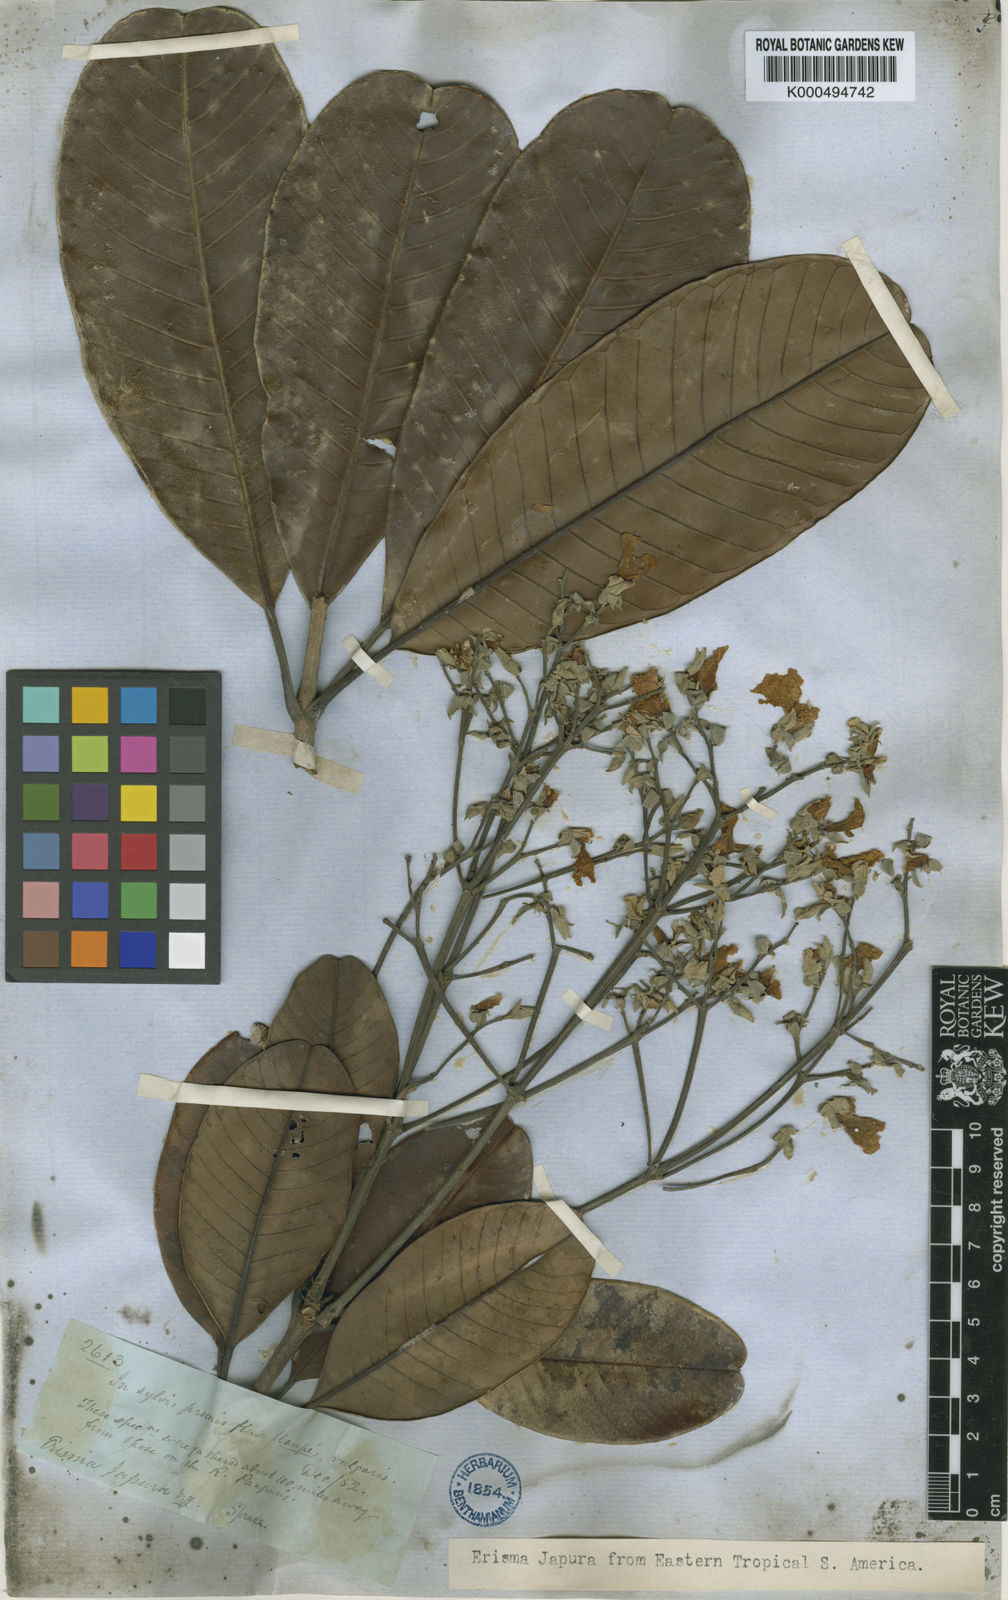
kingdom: Plantae
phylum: Tracheophyta
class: Magnoliopsida
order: Myrtales
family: Vochysiaceae
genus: Erisma
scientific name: Erisma japura
